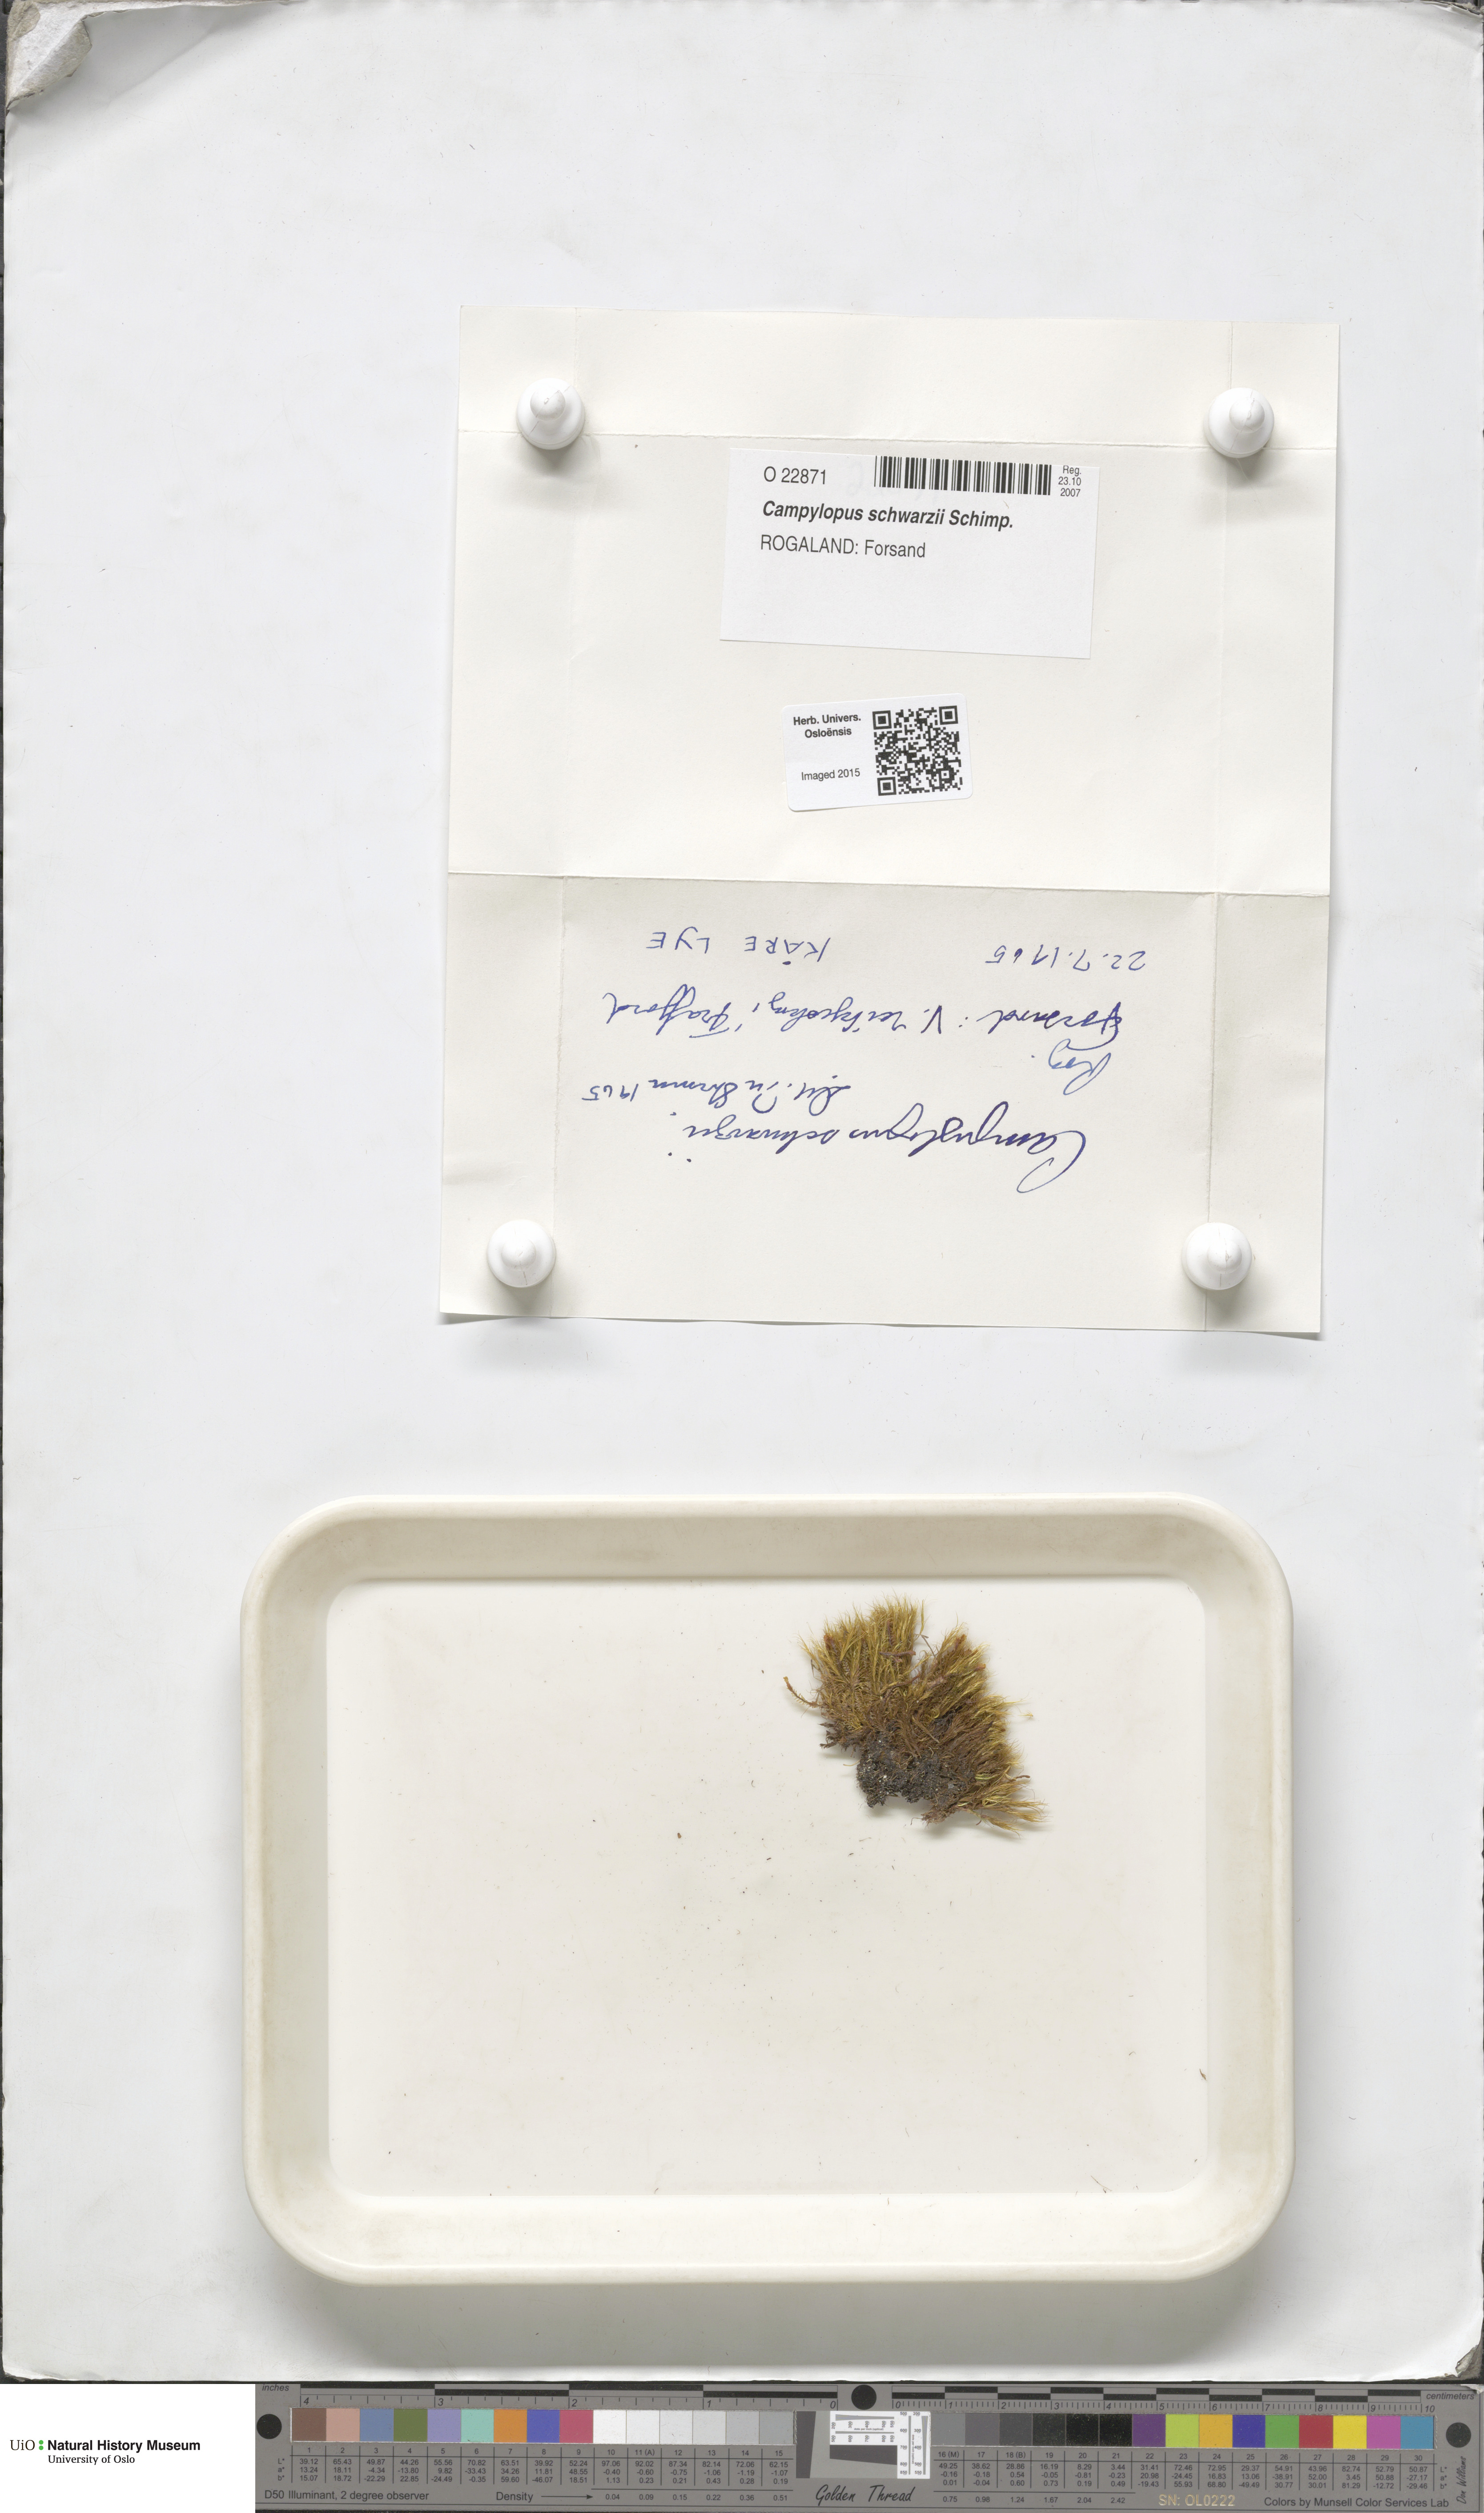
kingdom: Plantae
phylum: Bryophyta
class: Bryopsida
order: Dicranales
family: Leucobryaceae
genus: Campylopus
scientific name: Campylopus gracilis
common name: Schwarz's swan-neck moss
